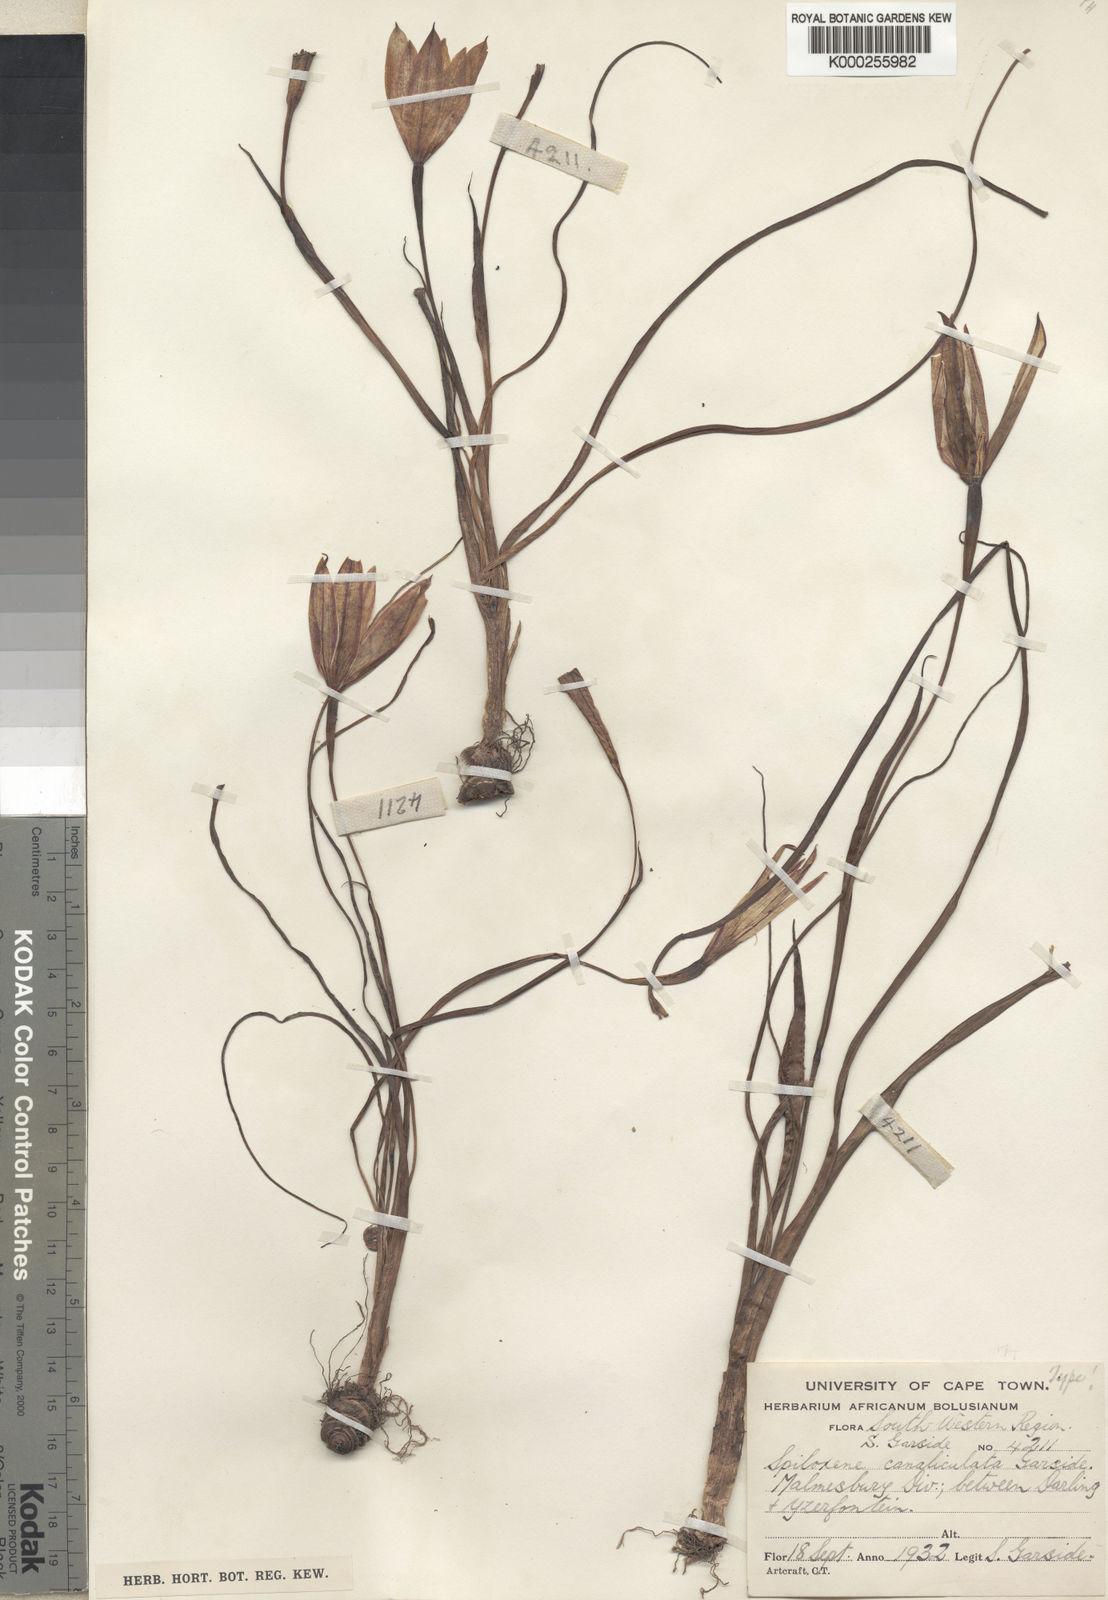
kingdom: Plantae
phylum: Tracheophyta
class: Liliopsida
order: Asparagales
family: Hypoxidaceae
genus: Pauridia
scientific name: Pauridia canaliculata
